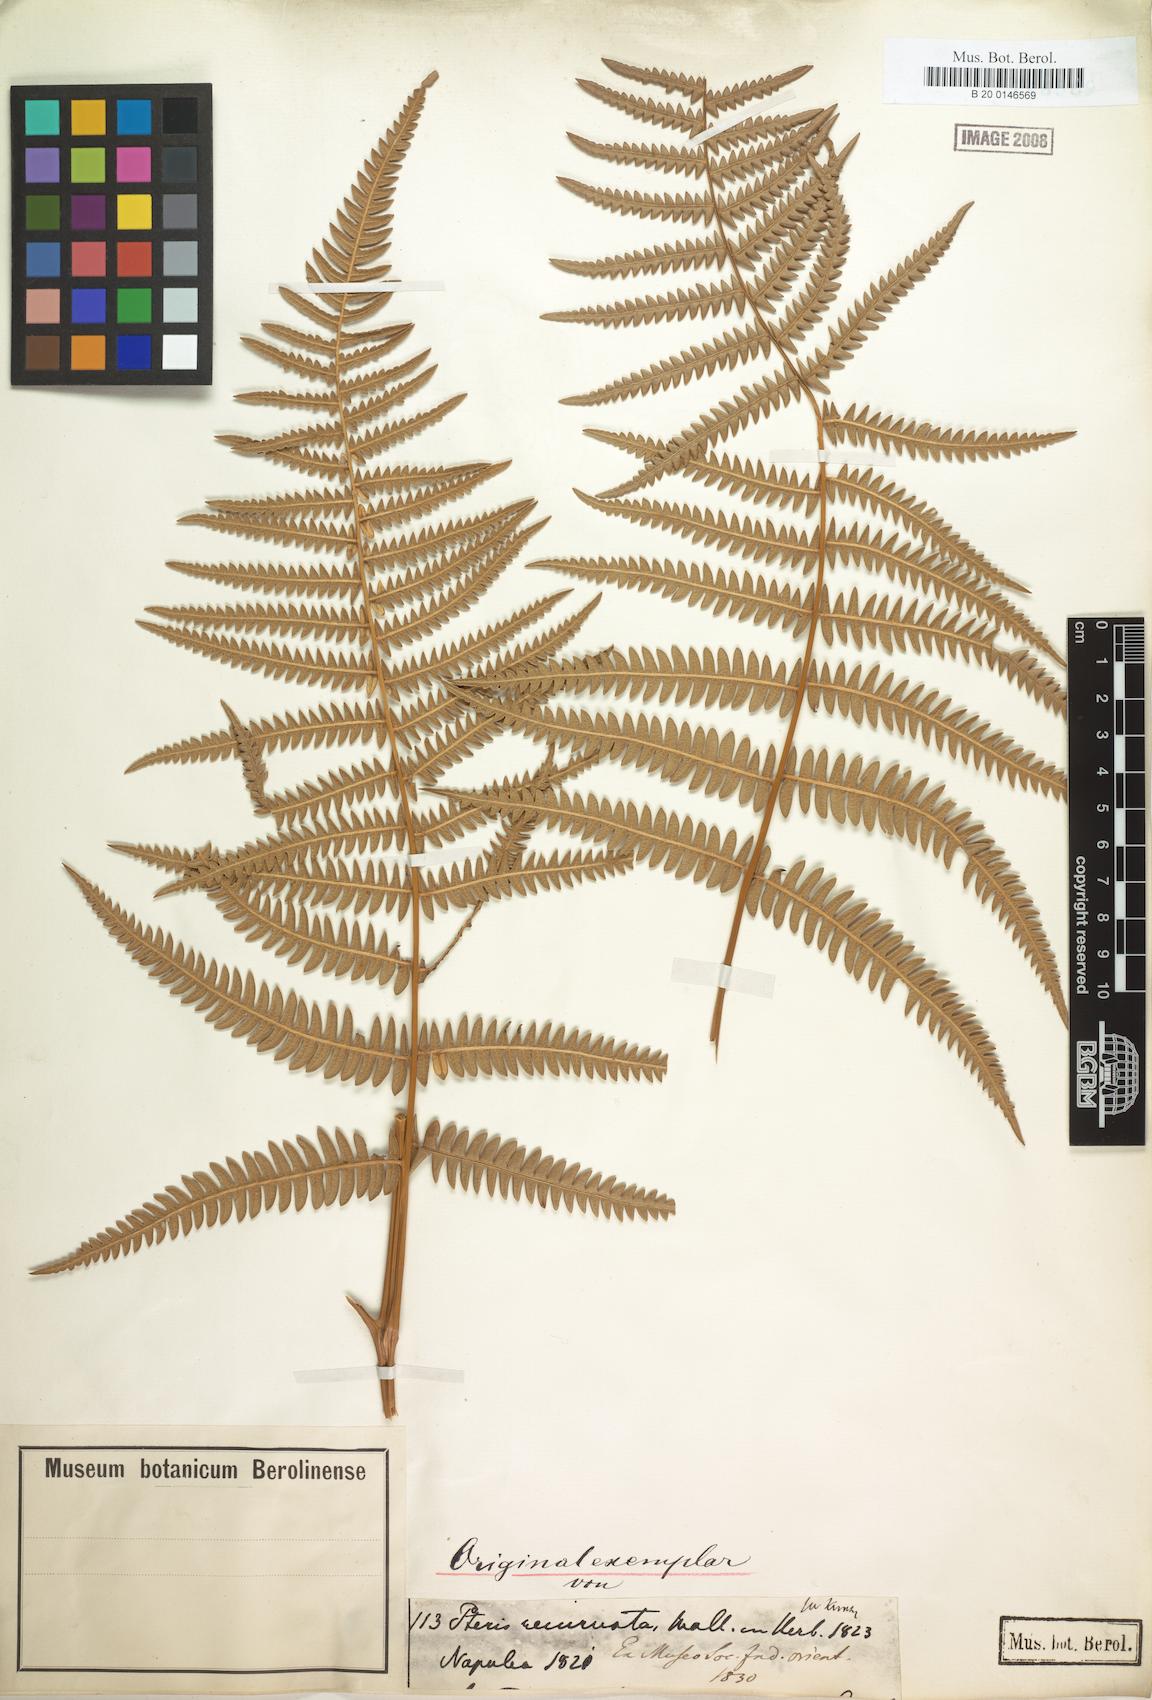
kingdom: Plantae
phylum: Tracheophyta
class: Polypodiopsida
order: Polypodiales
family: Dennstaedtiaceae
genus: Pteridium
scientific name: Pteridium aquilinum
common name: Bracken
